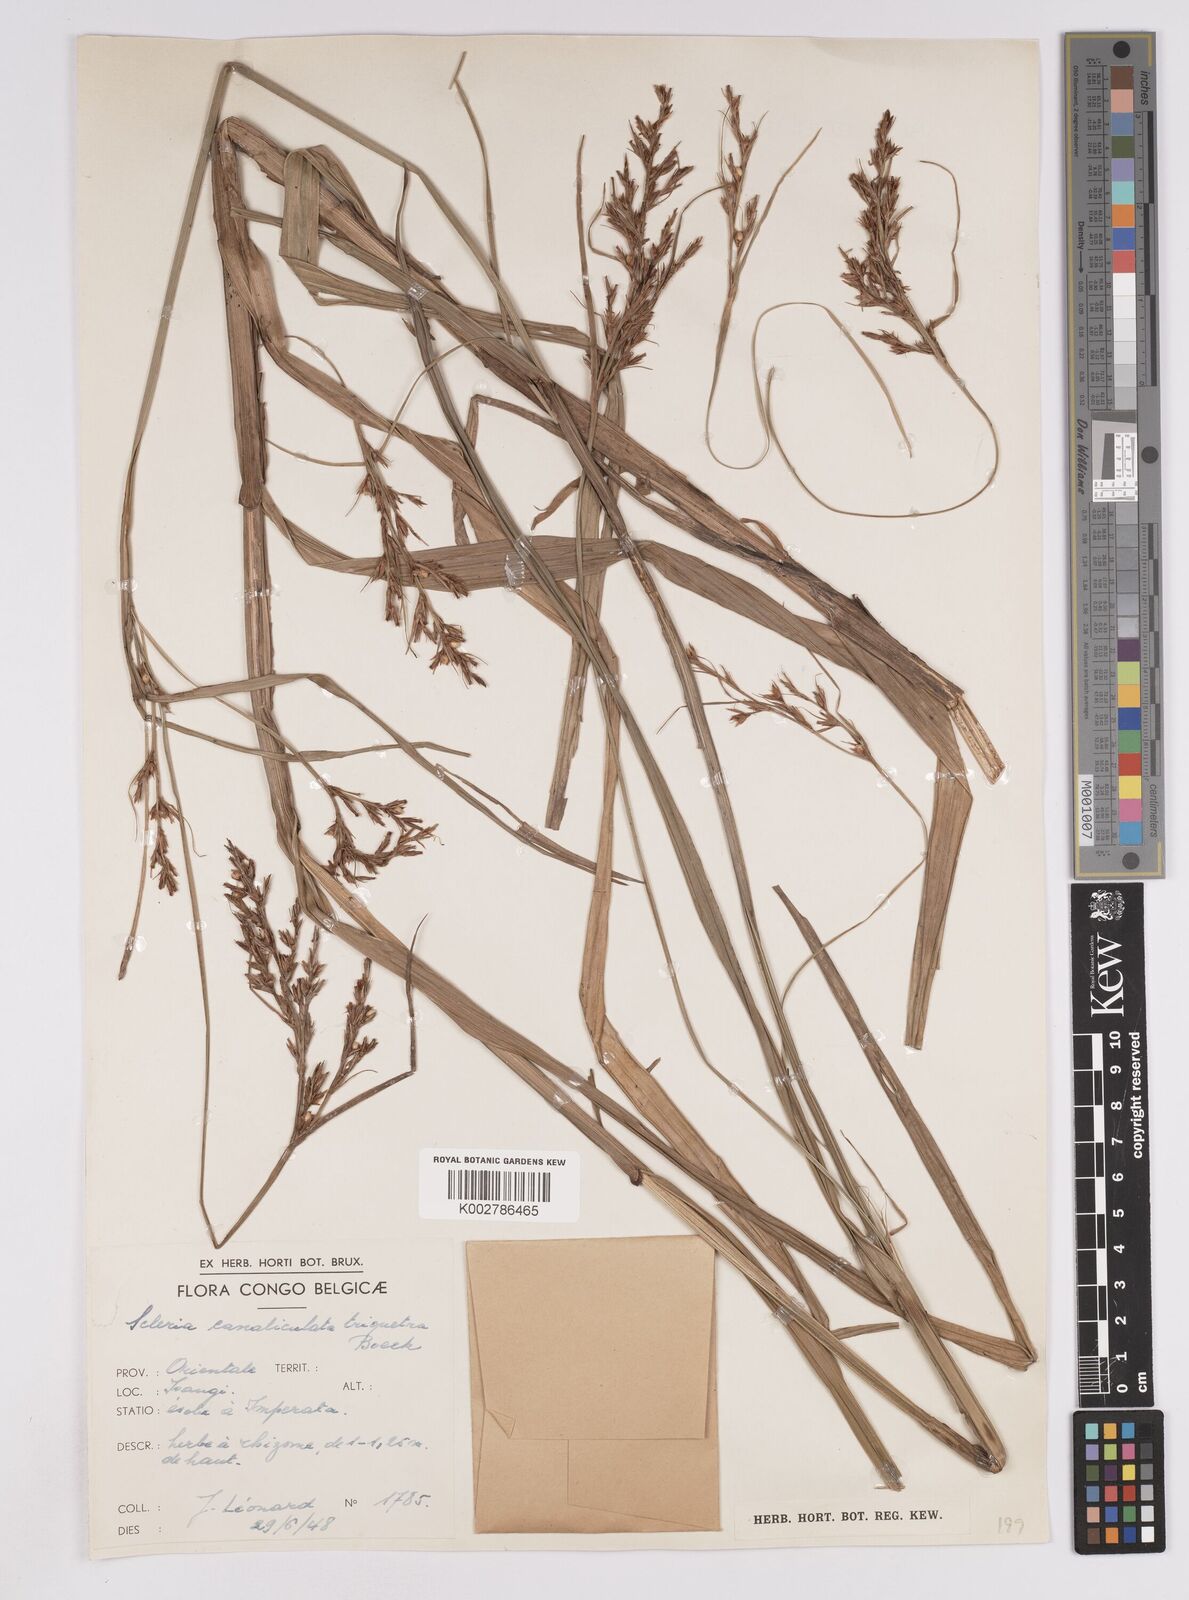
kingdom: Plantae
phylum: Tracheophyta
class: Liliopsida
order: Poales
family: Cyperaceae
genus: Scleria
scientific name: Scleria lagoensis
